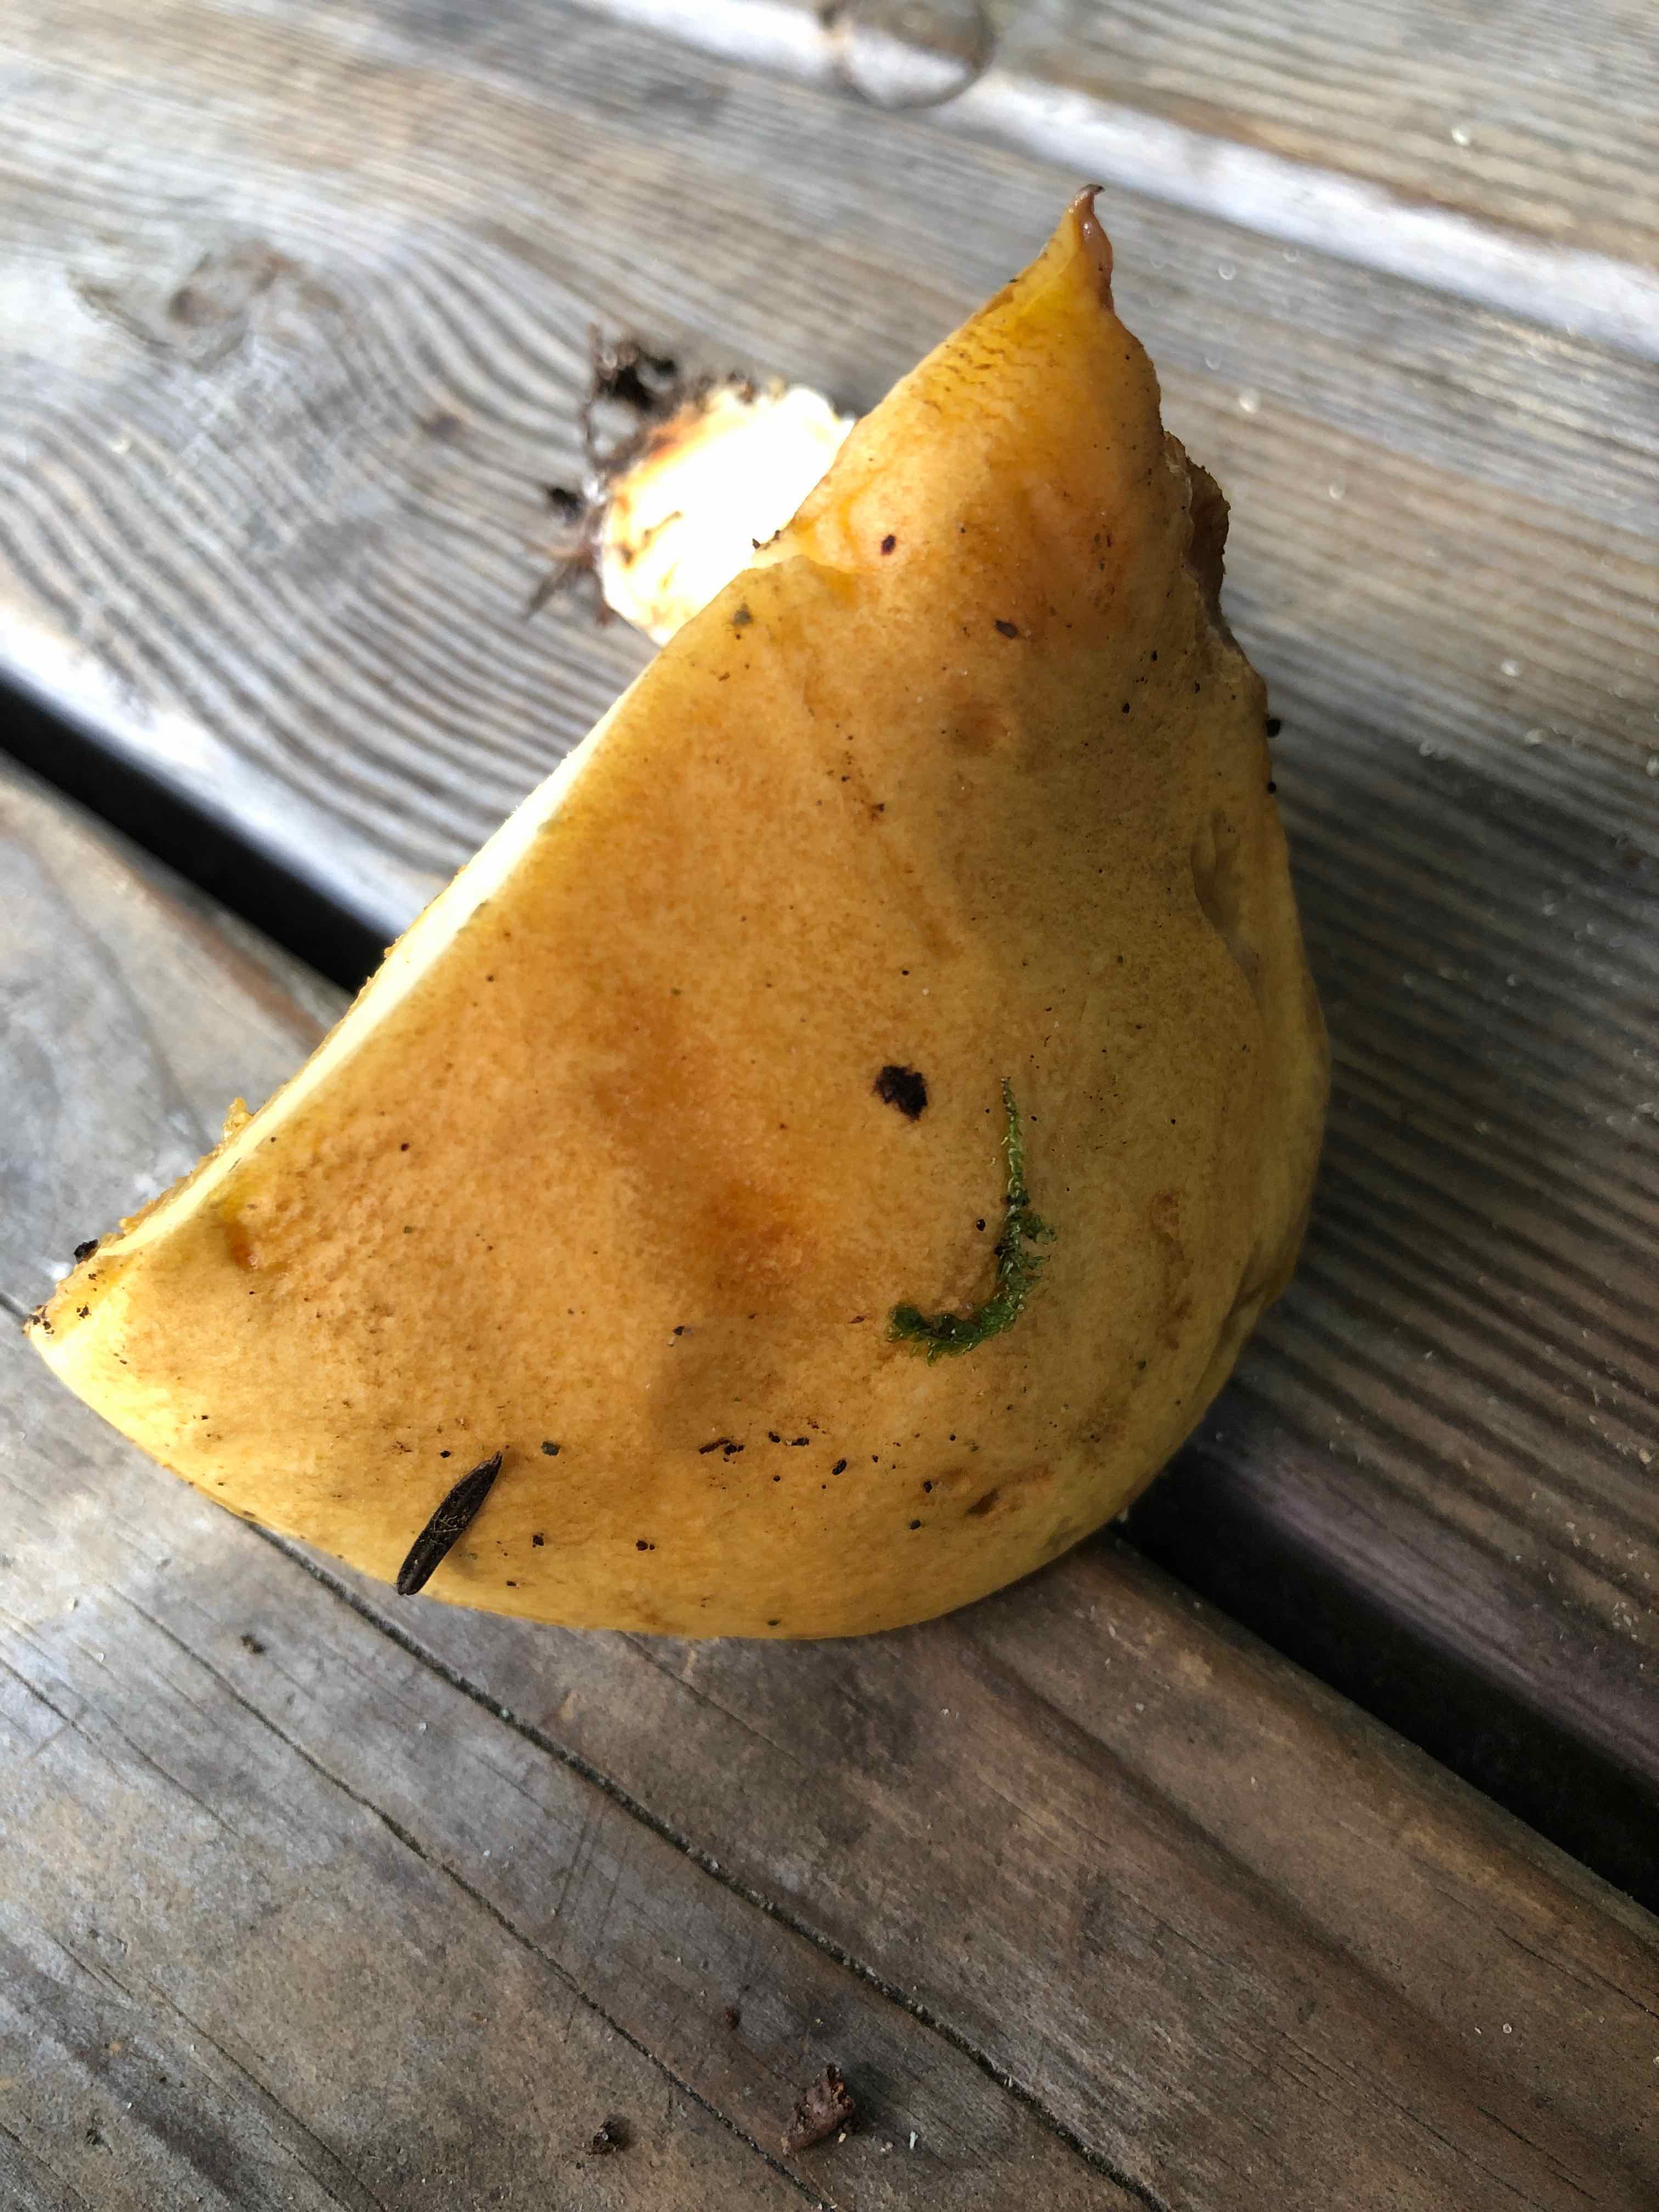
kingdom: Fungi
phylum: Basidiomycota
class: Agaricomycetes
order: Boletales
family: Suillaceae
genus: Suillus
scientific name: Suillus variegatus
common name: broget slimrørhat
